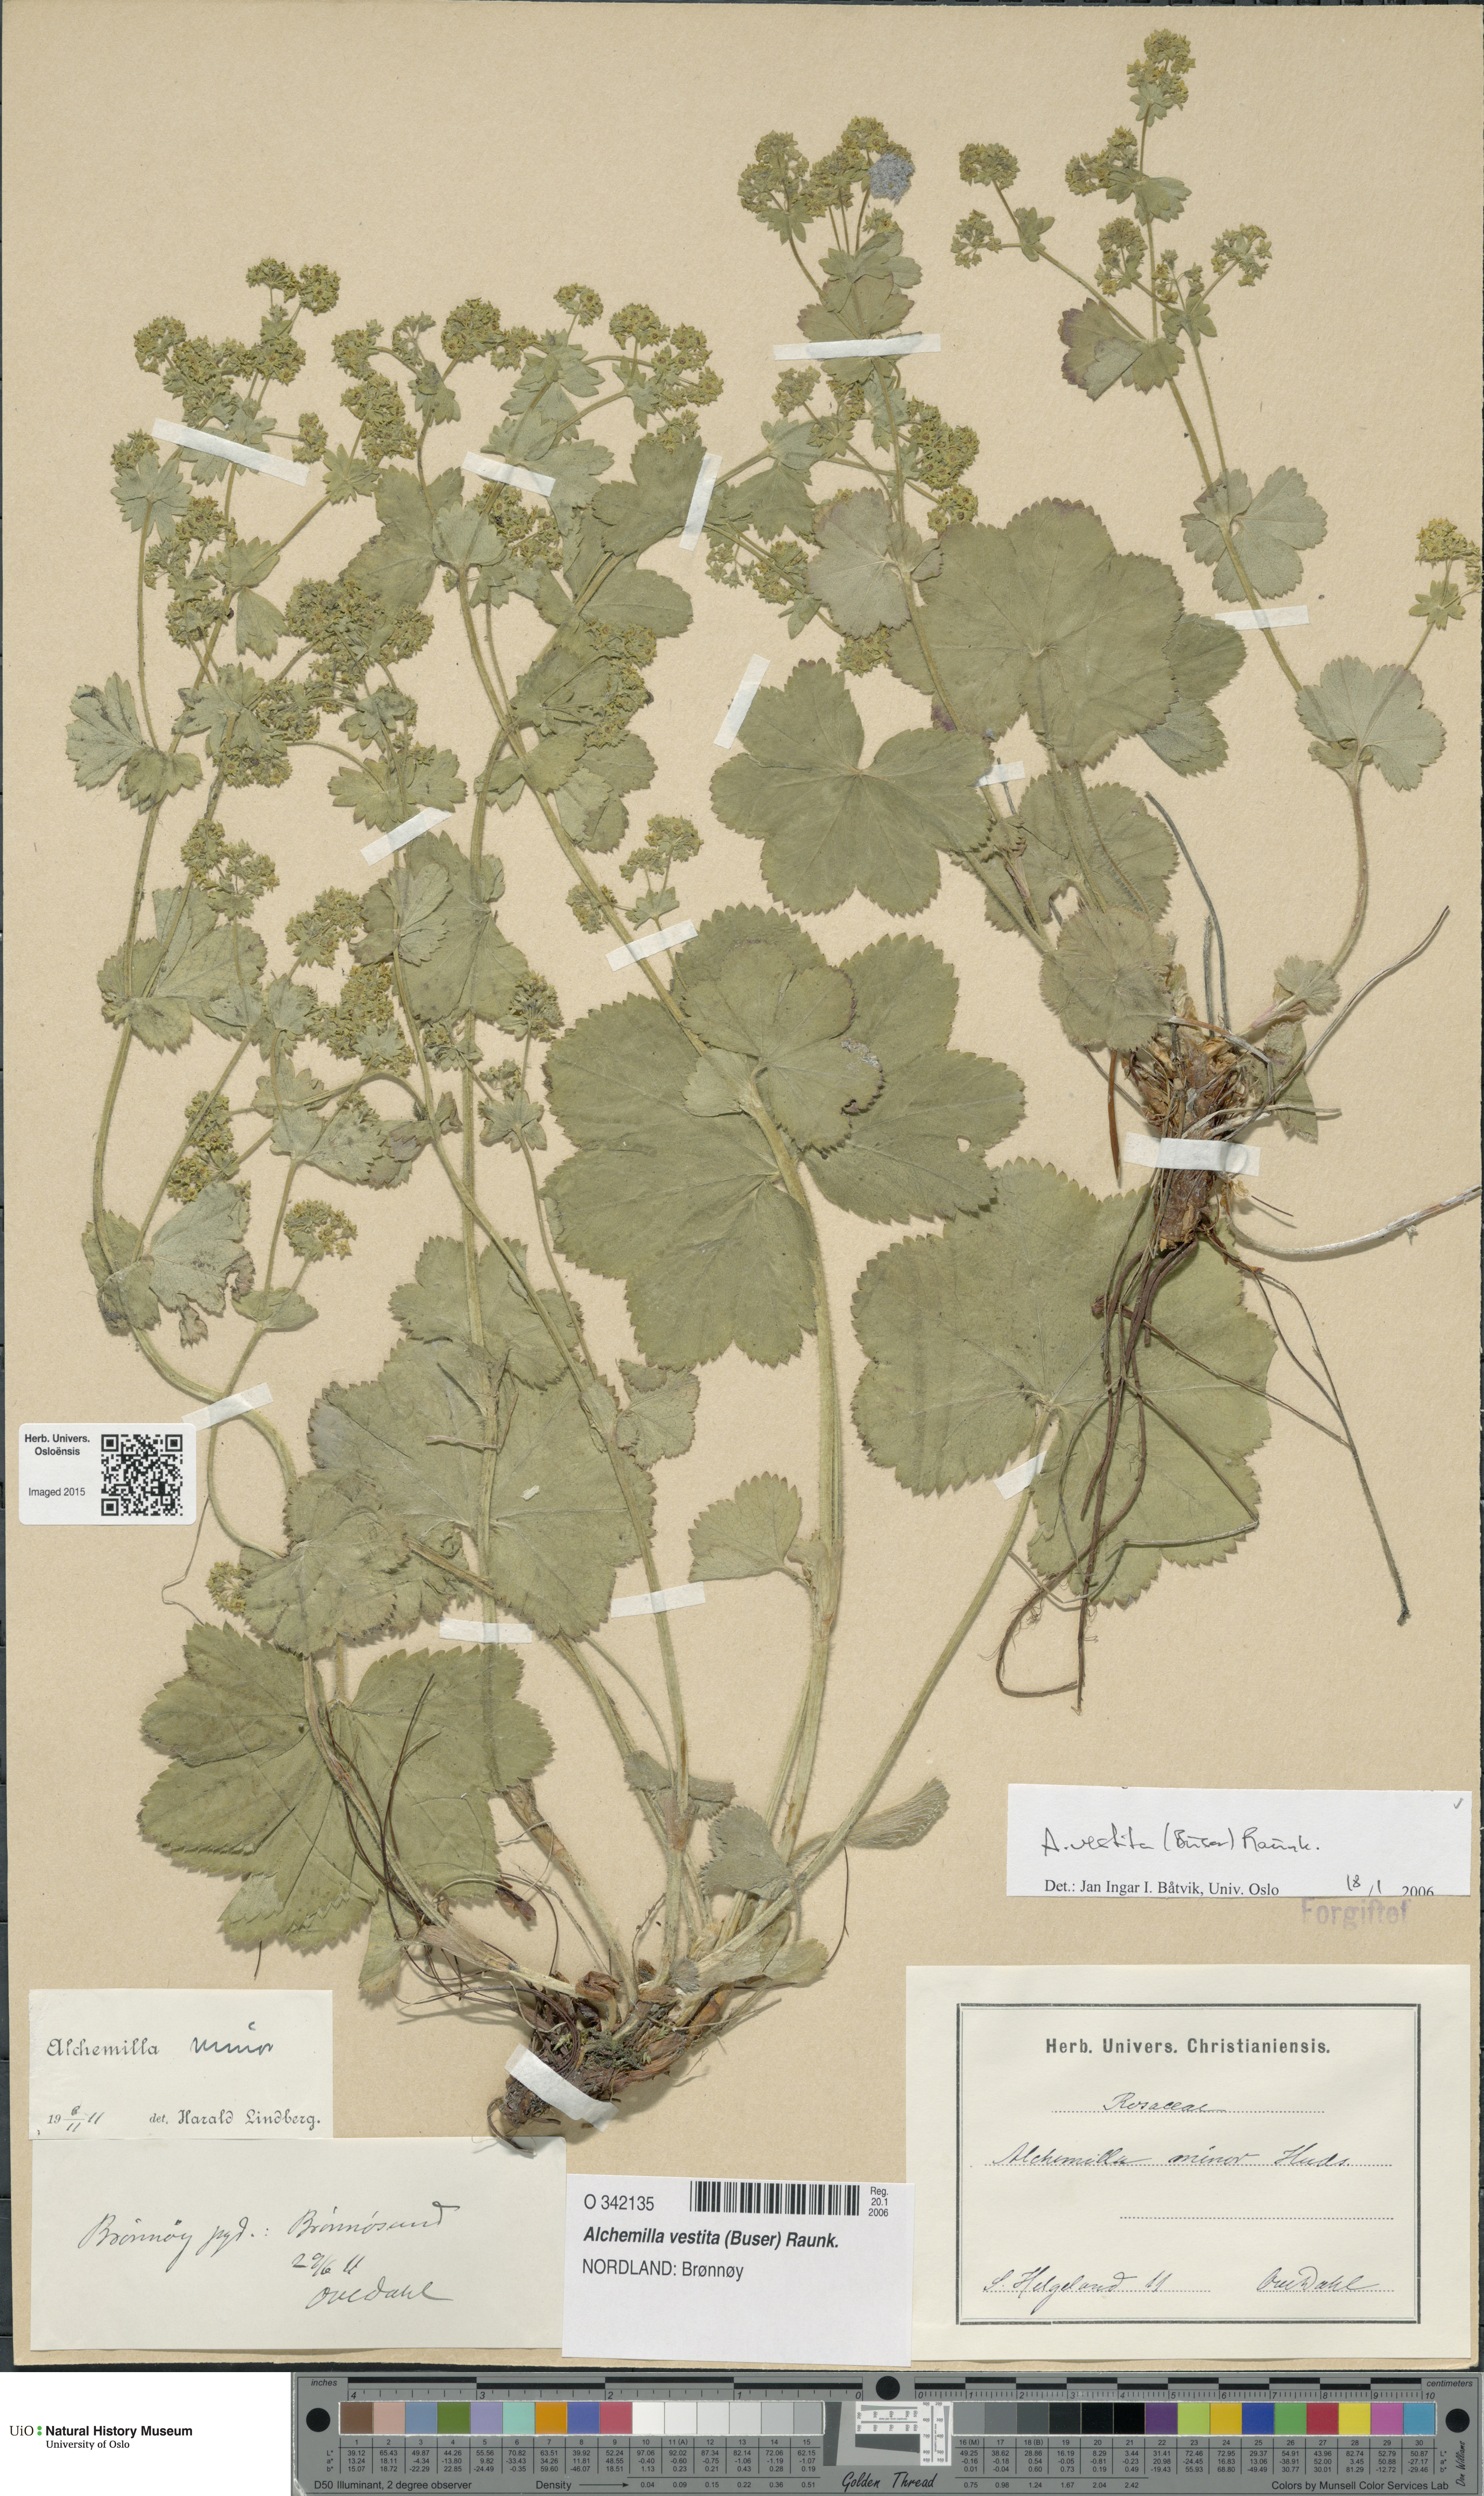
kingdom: Plantae
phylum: Tracheophyta
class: Magnoliopsida
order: Rosales
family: Rosaceae
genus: Alchemilla
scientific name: Alchemilla filicaulis
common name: Hairy lady's-mantle
